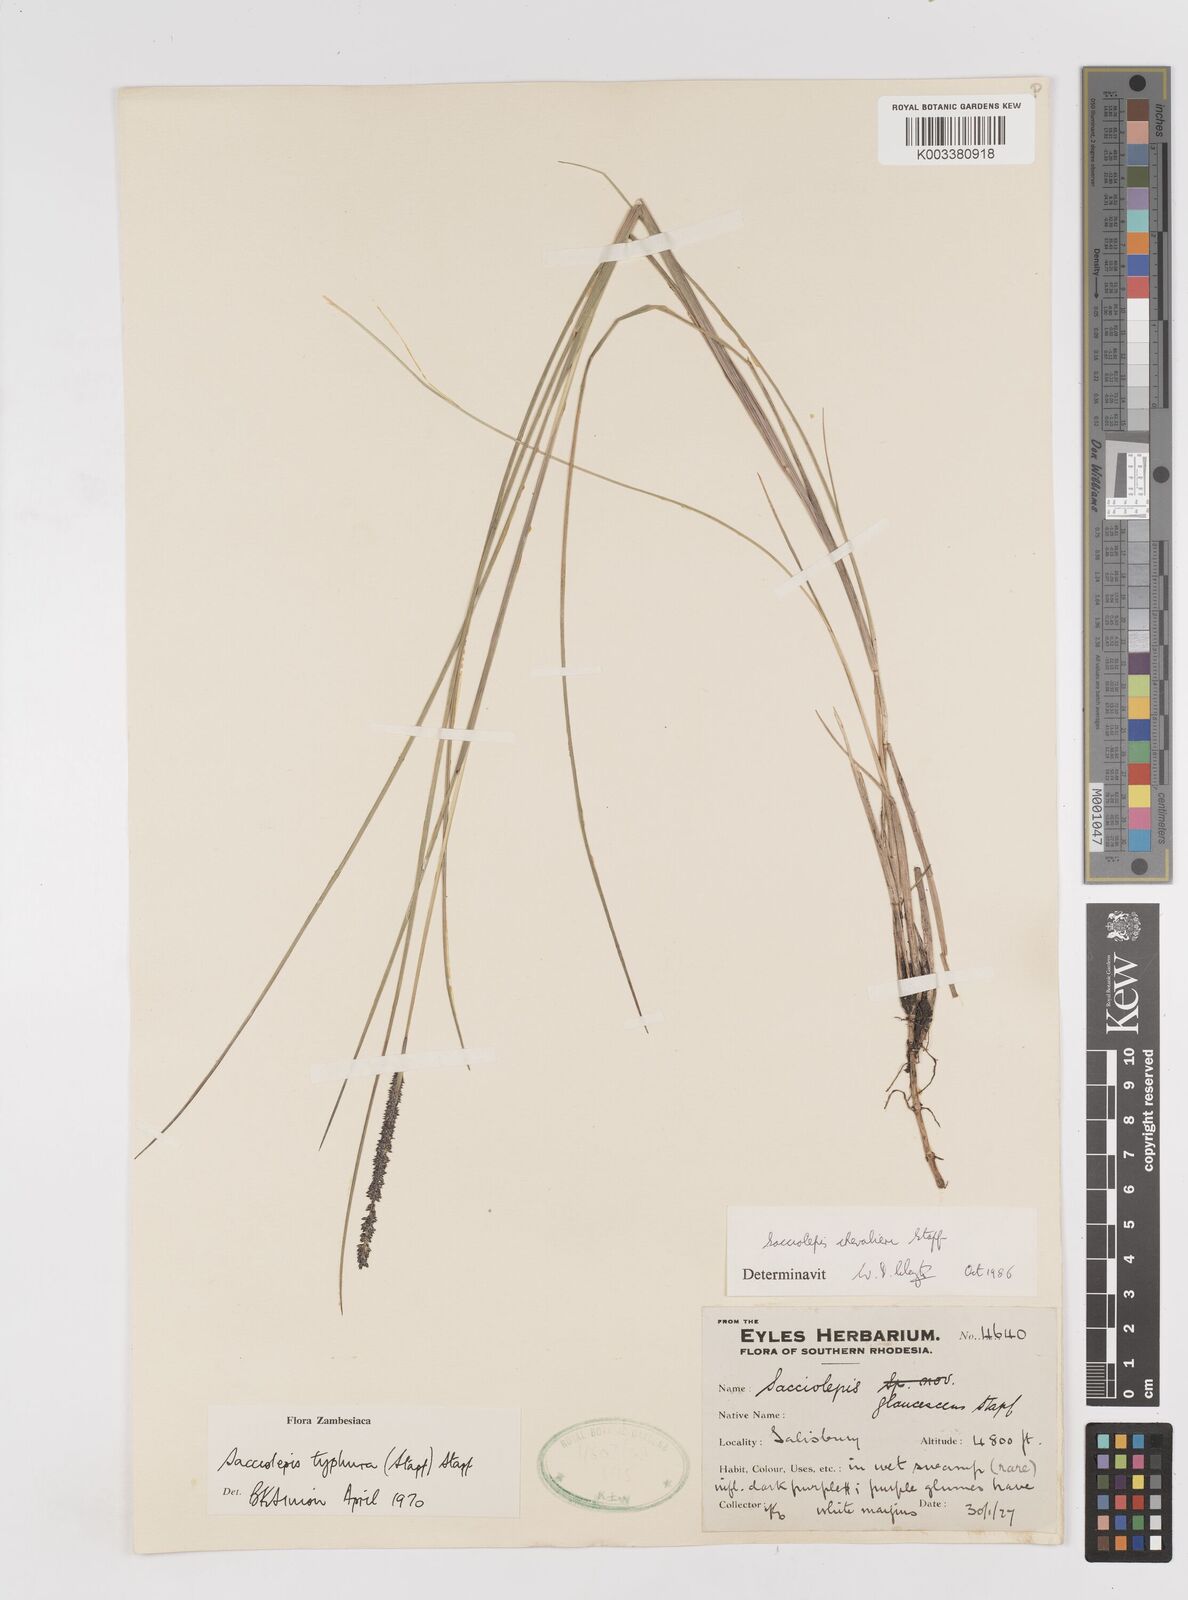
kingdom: Plantae
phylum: Tracheophyta
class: Liliopsida
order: Poales
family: Poaceae
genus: Sacciolepis
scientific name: Sacciolepis chevalieri
